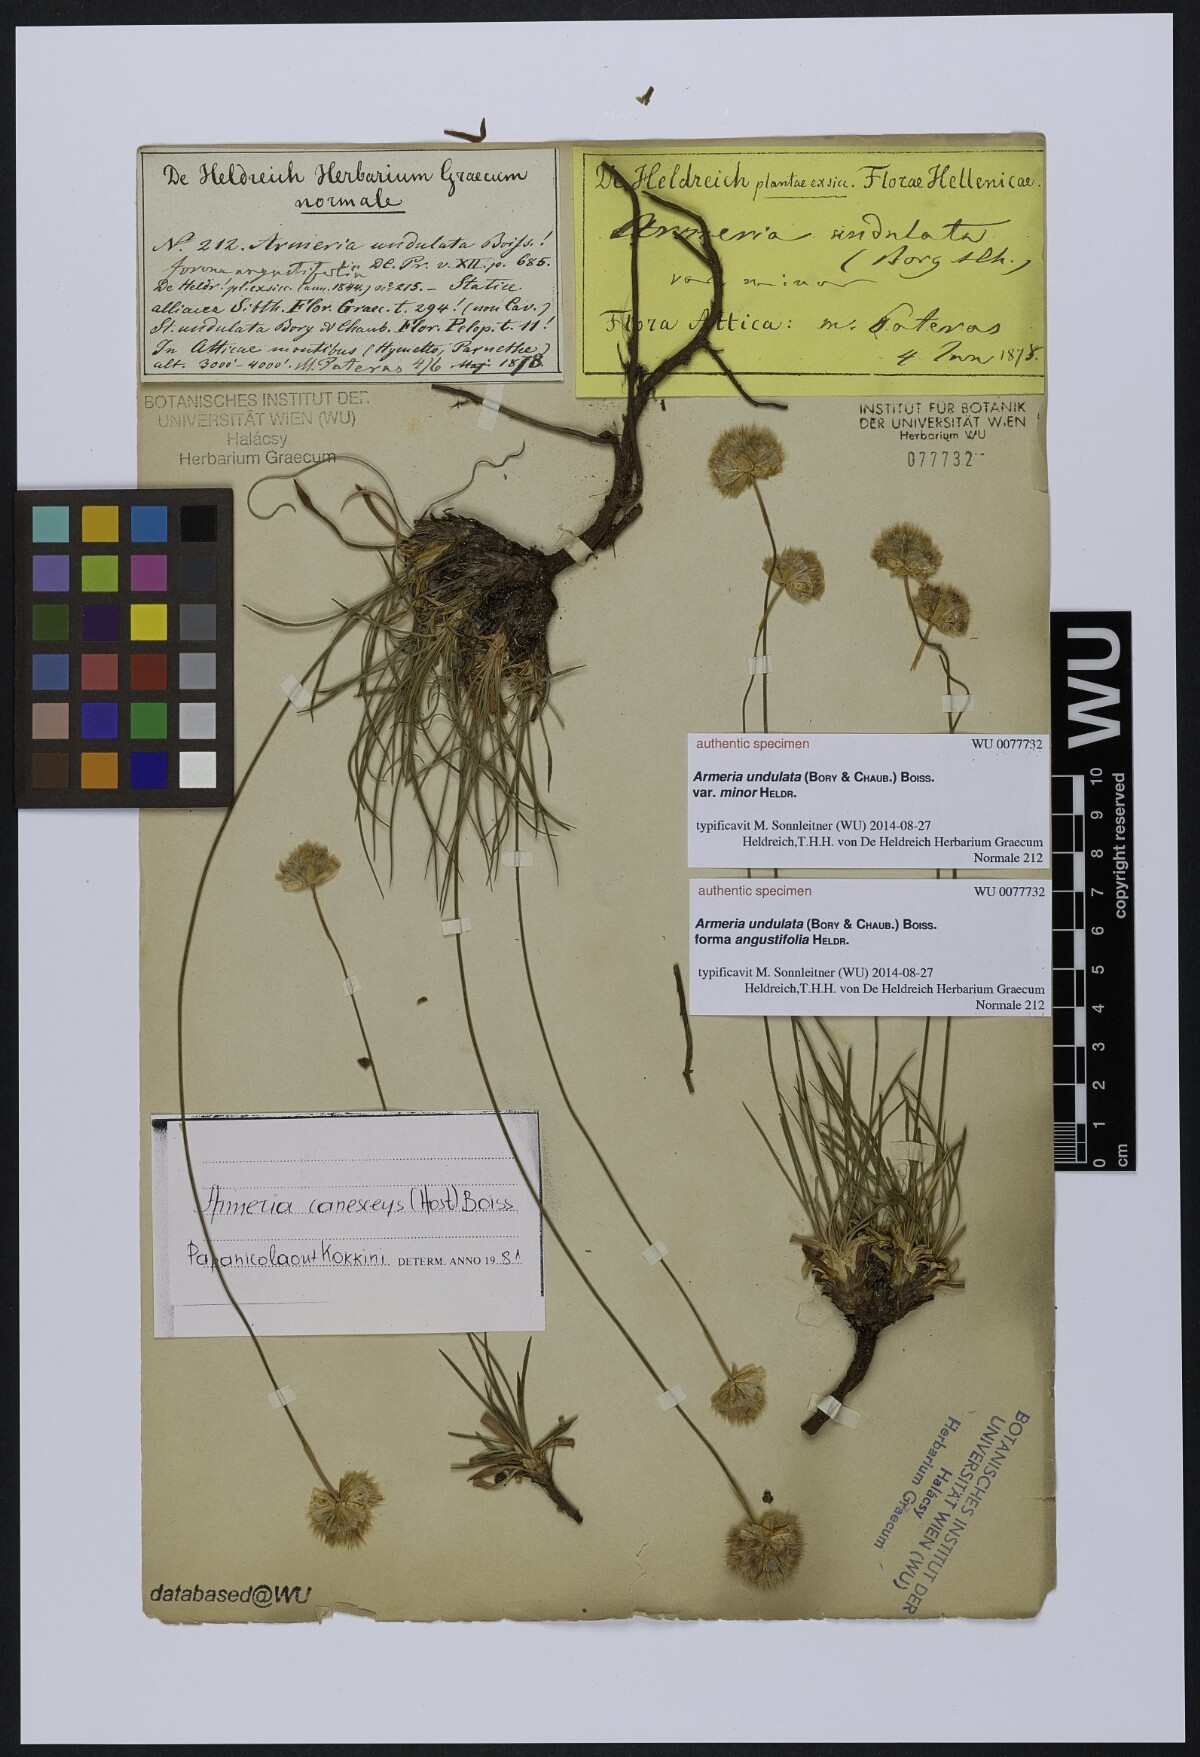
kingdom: Plantae
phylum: Tracheophyta
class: Magnoliopsida
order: Caryophyllales
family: Plumbaginaceae
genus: Armeria
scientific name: Armeria undulata
